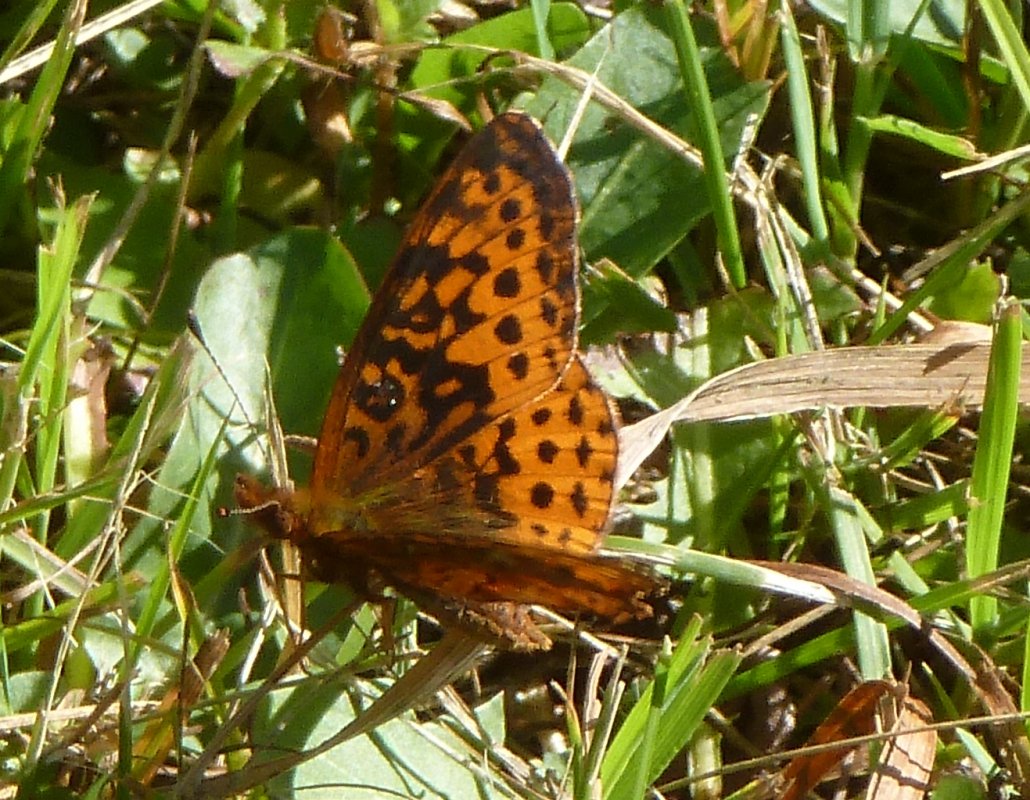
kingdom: Animalia
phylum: Arthropoda
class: Insecta
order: Lepidoptera
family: Nymphalidae
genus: Clossiana
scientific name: Clossiana toddi
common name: Meadow Fritillary
